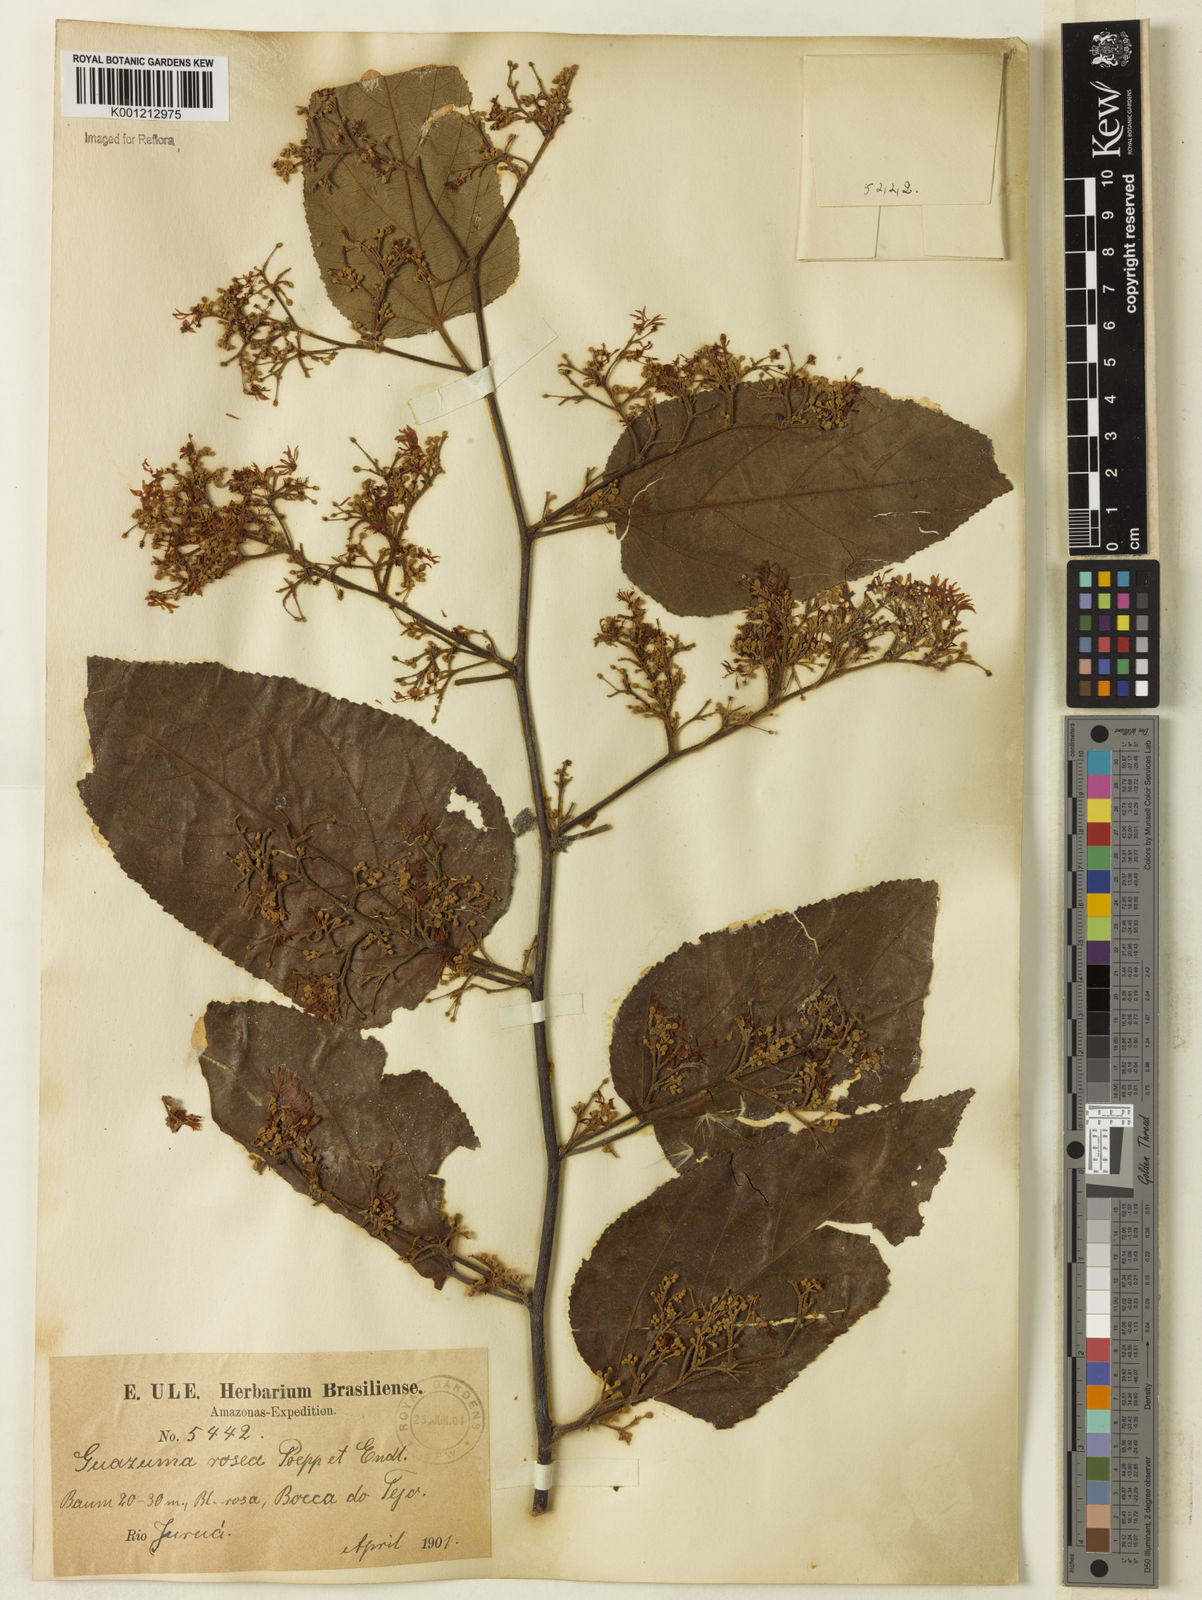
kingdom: Plantae
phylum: Tracheophyta
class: Magnoliopsida
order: Malvales
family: Malvaceae
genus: Guazuma
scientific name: Guazuma crinita
